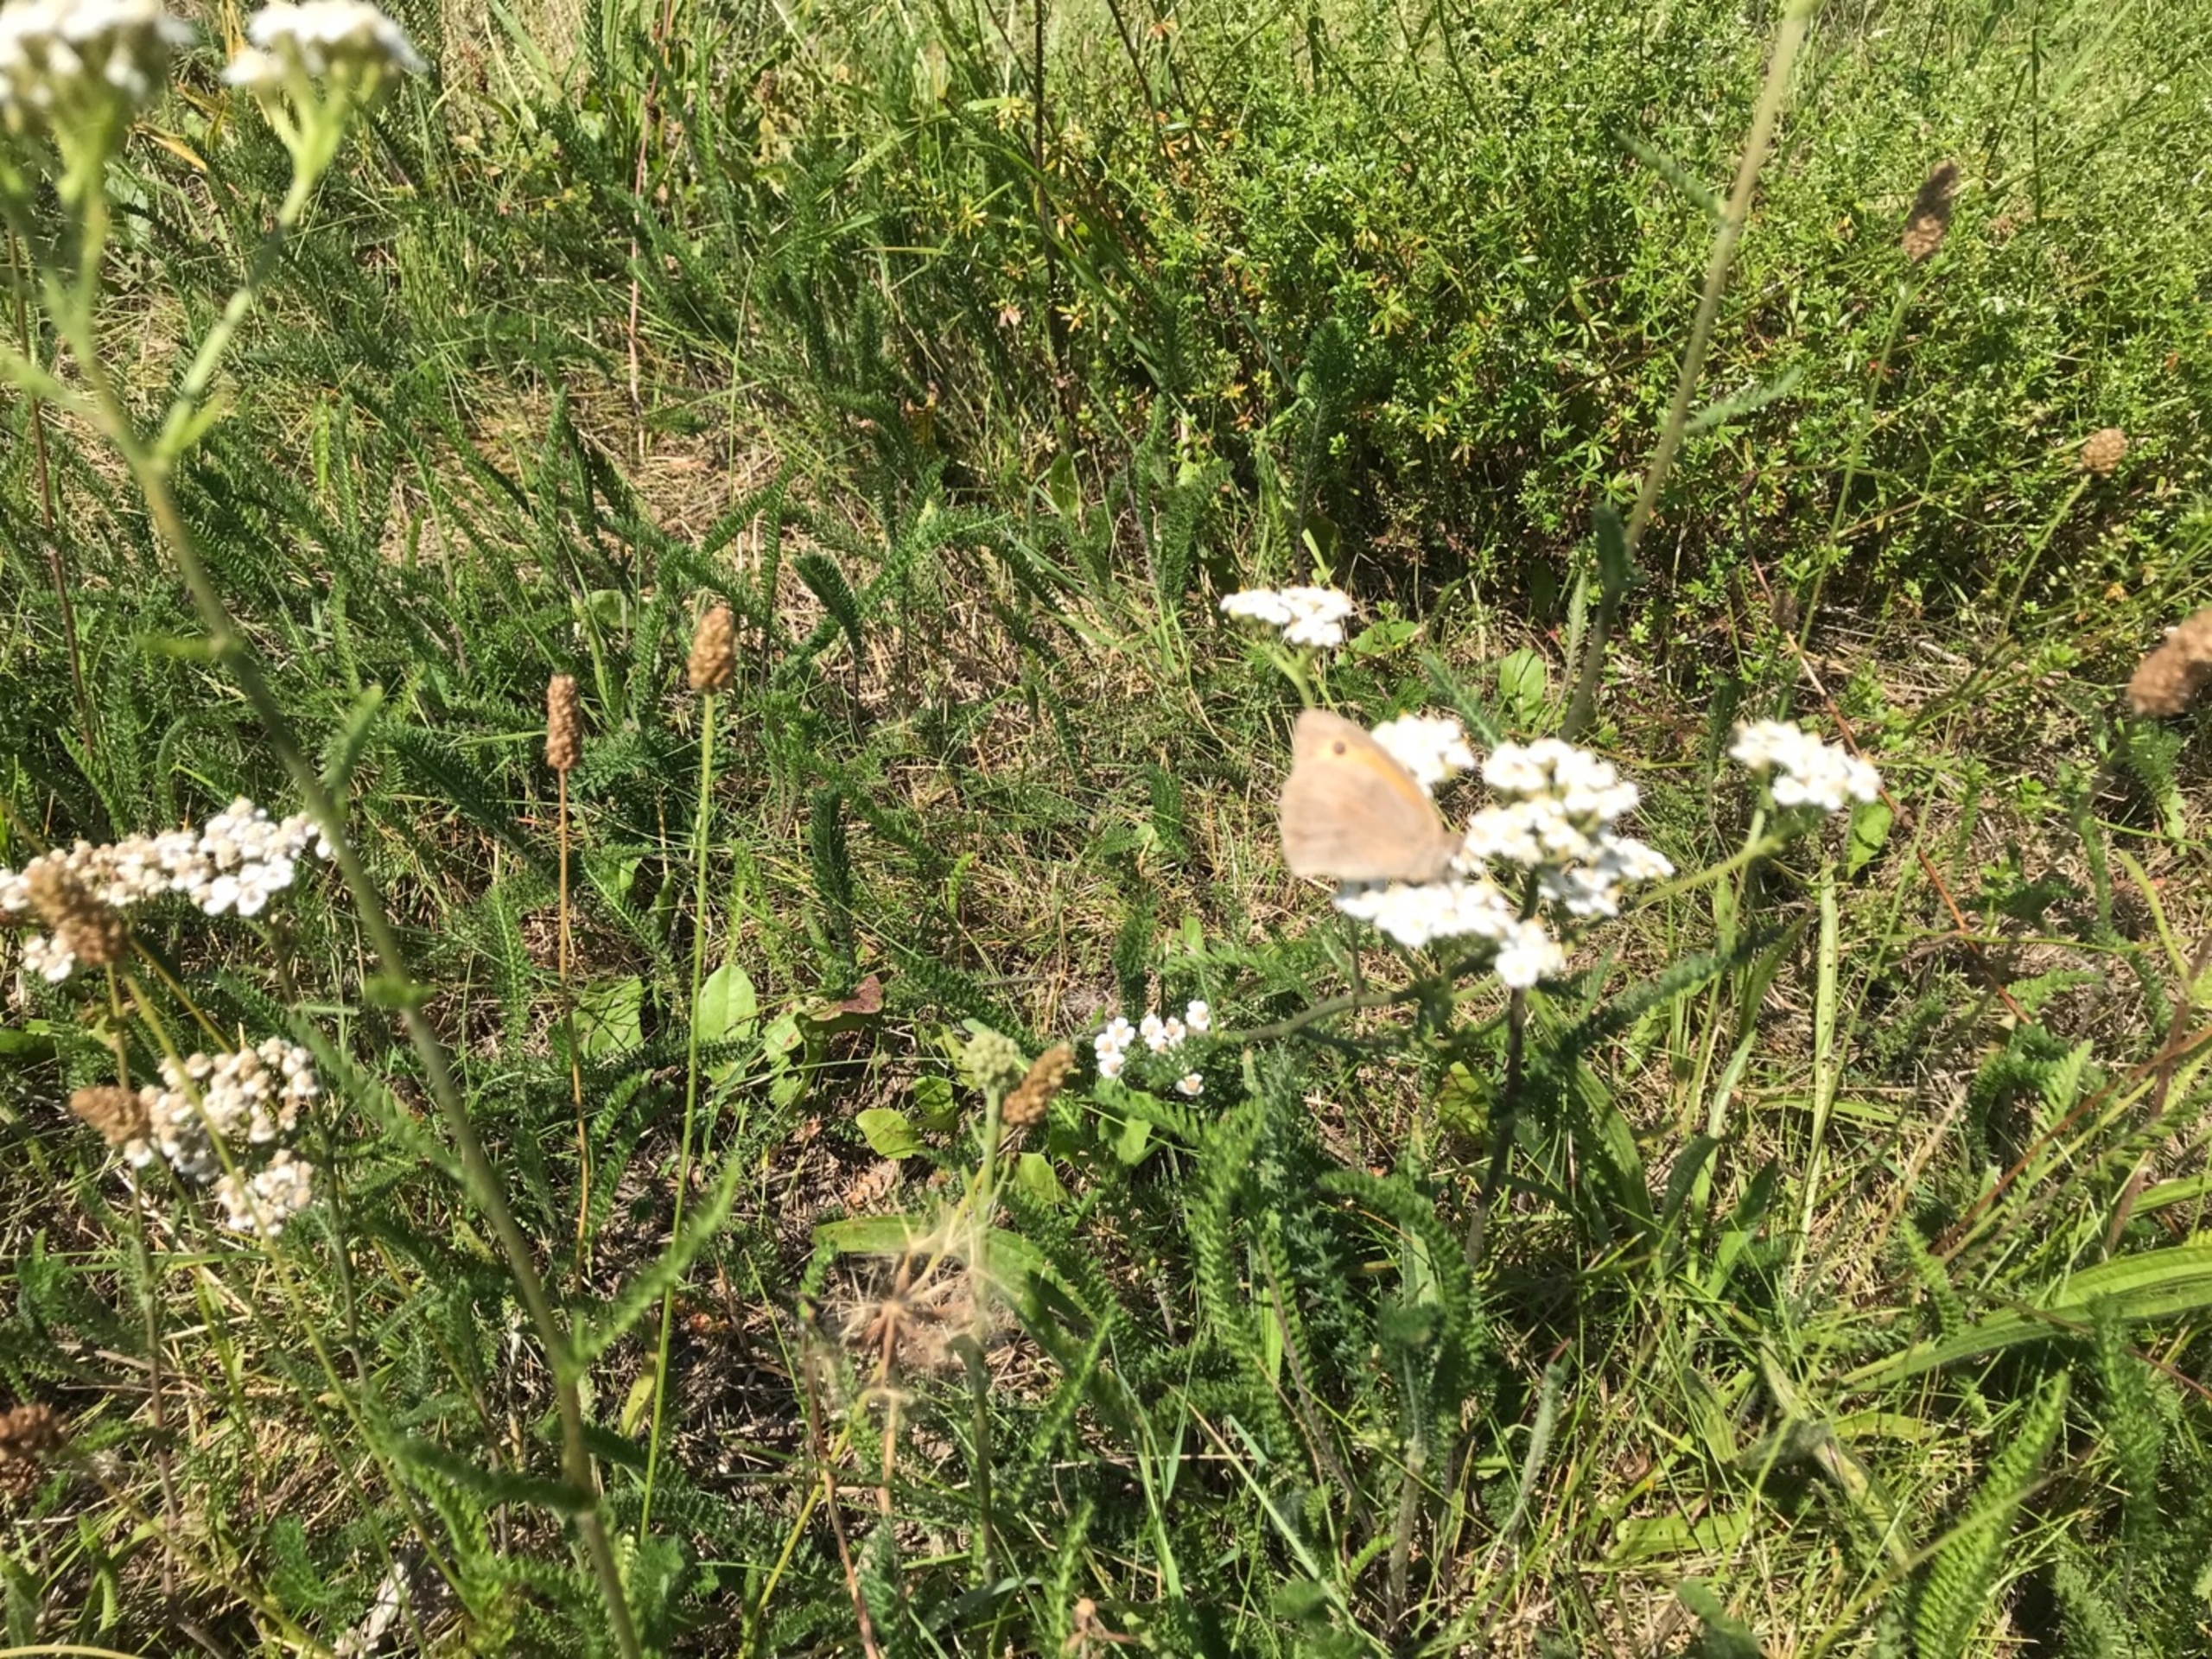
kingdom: Animalia
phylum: Arthropoda
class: Insecta
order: Lepidoptera
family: Nymphalidae
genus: Maniola
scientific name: Maniola jurtina
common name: Græsrandøje
